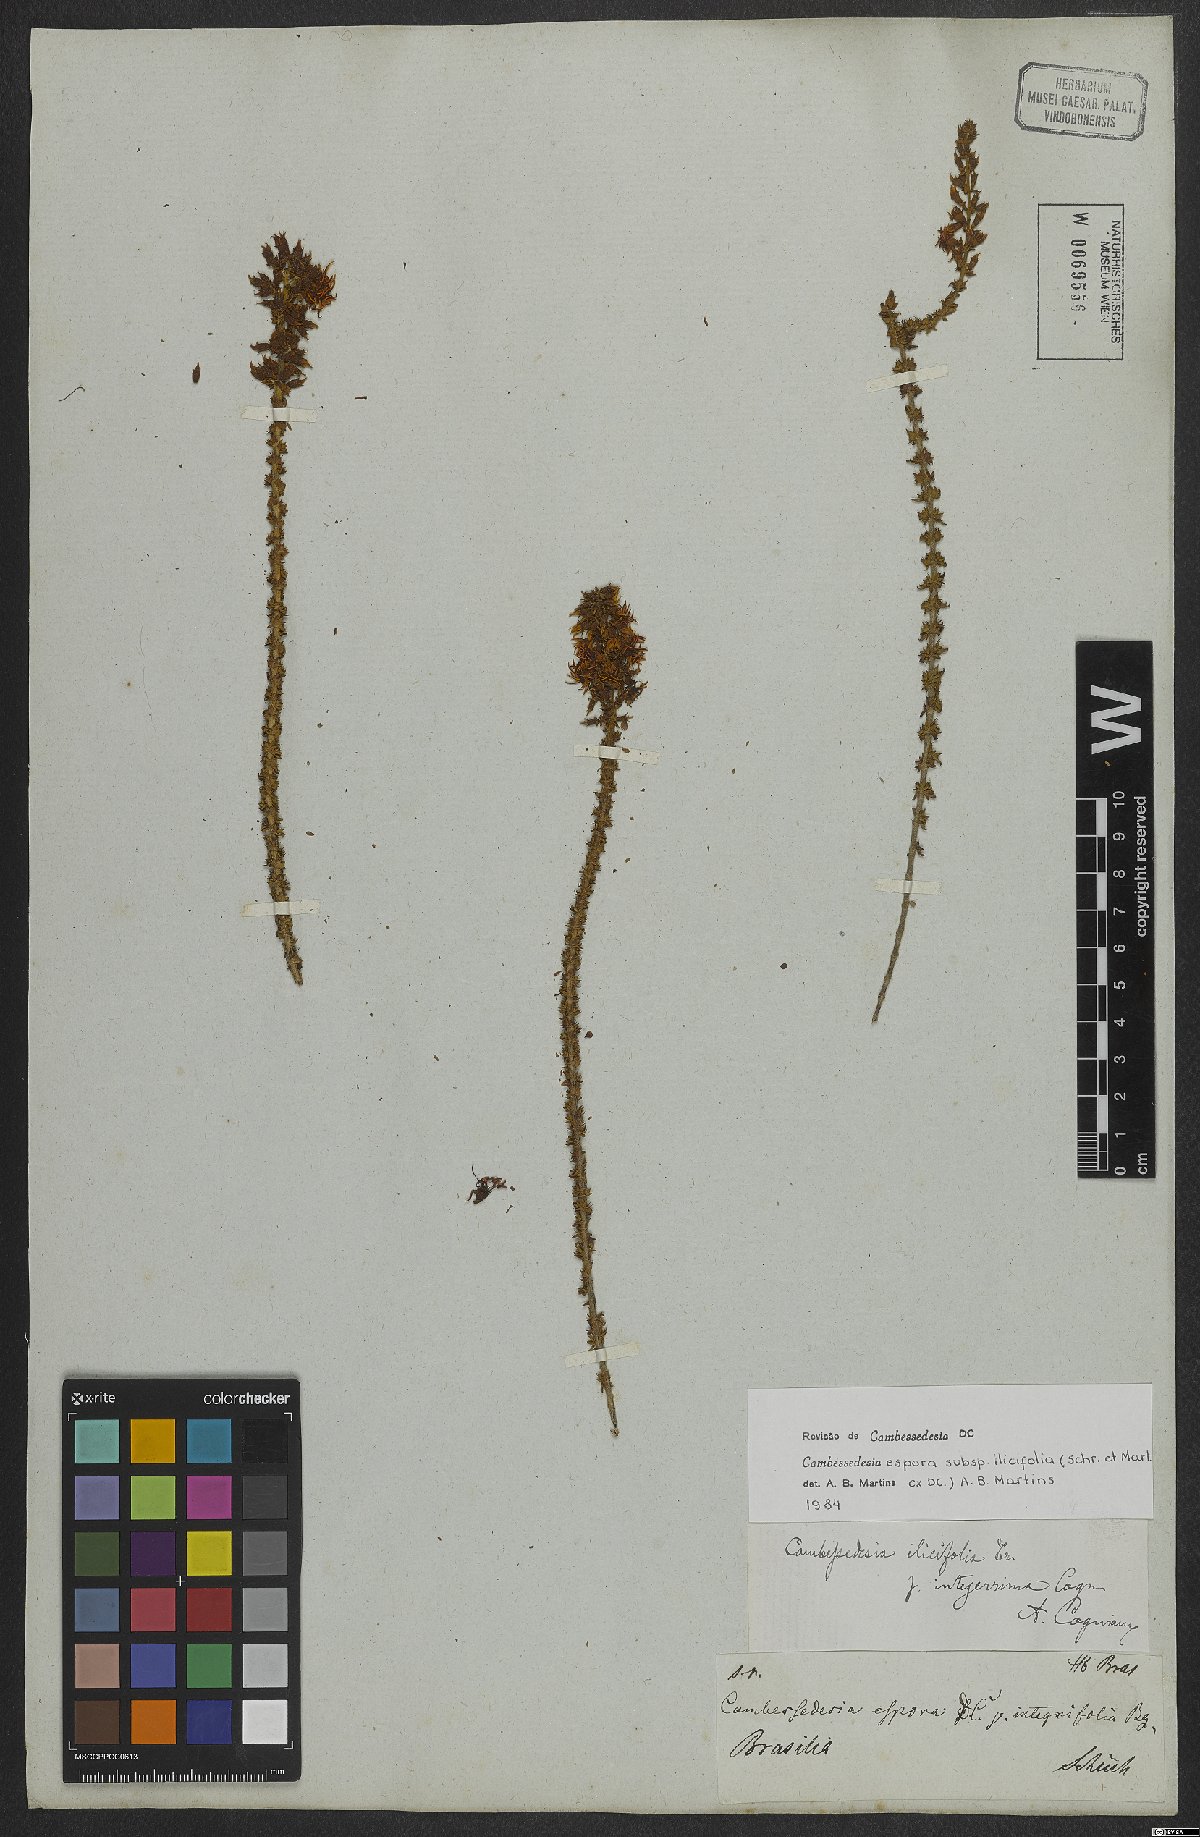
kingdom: Plantae
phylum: Tracheophyta
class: Magnoliopsida
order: Myrtales
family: Melastomataceae
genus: Cambessedesia
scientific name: Cambessedesia espora
